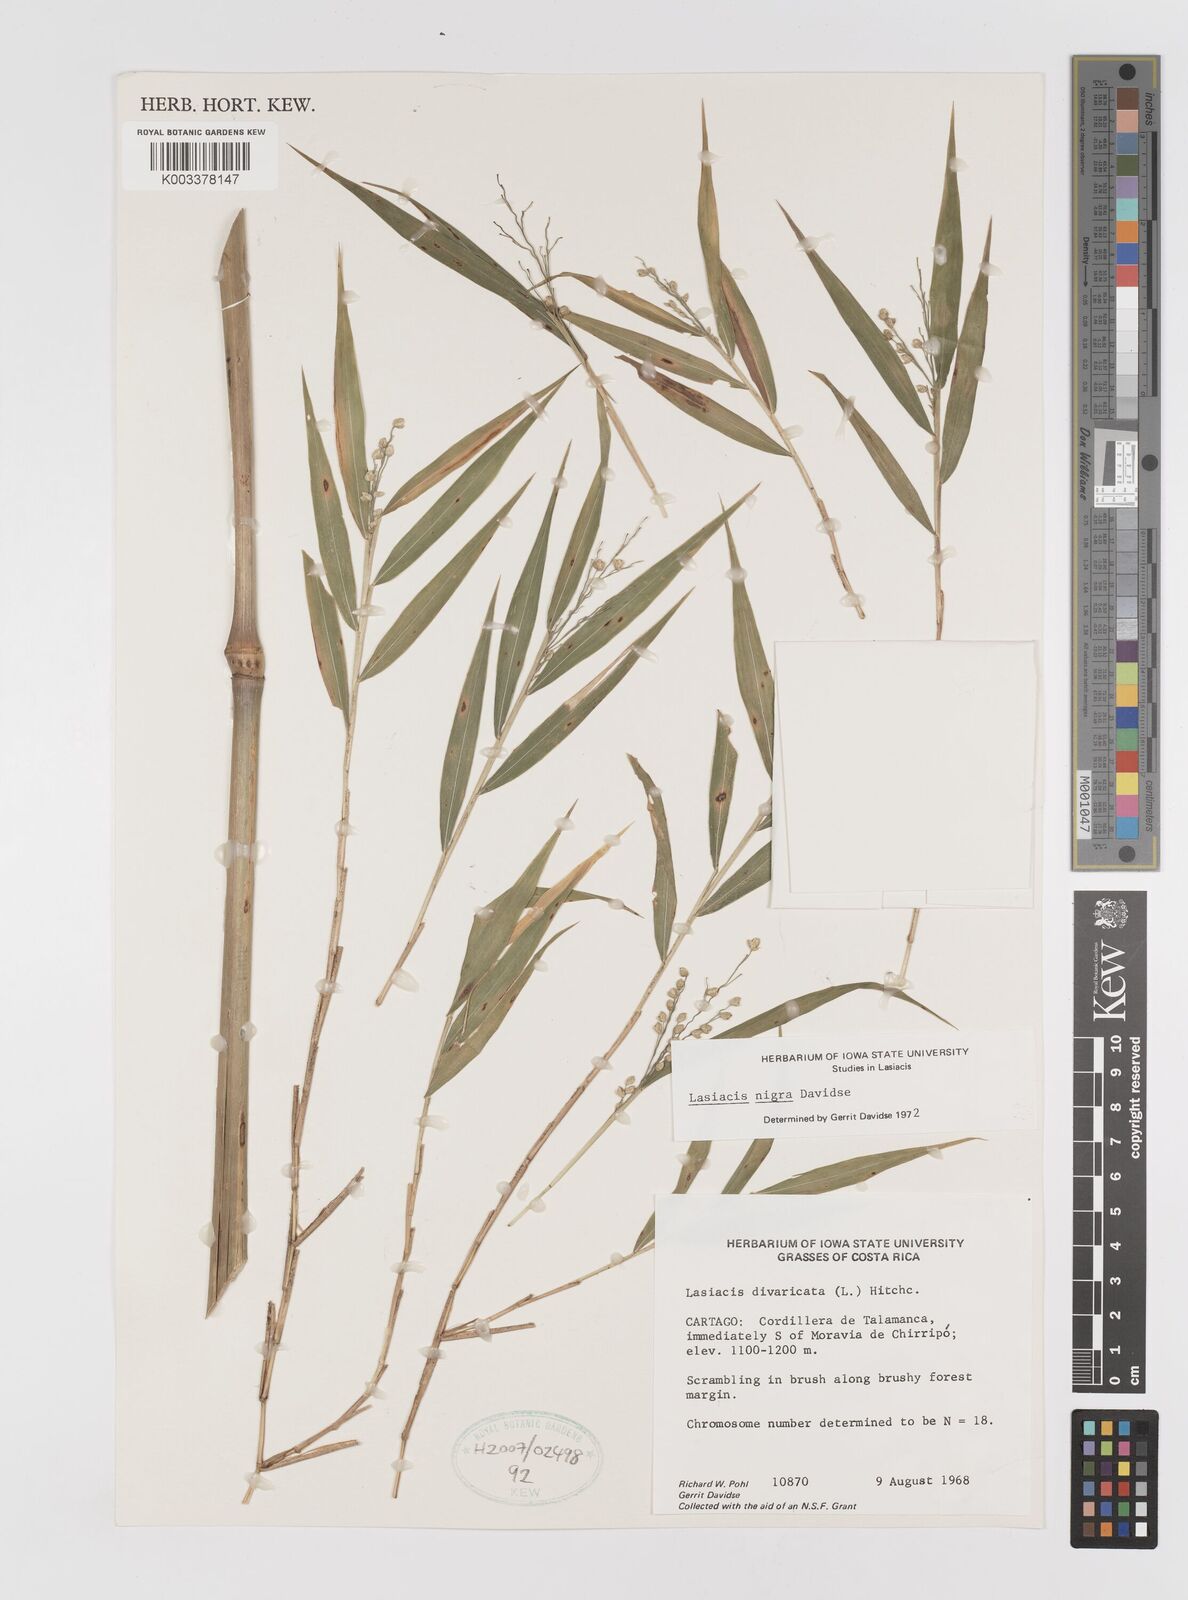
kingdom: Plantae
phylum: Tracheophyta
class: Liliopsida
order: Poales
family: Poaceae
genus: Lasiacis
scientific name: Lasiacis nigra
